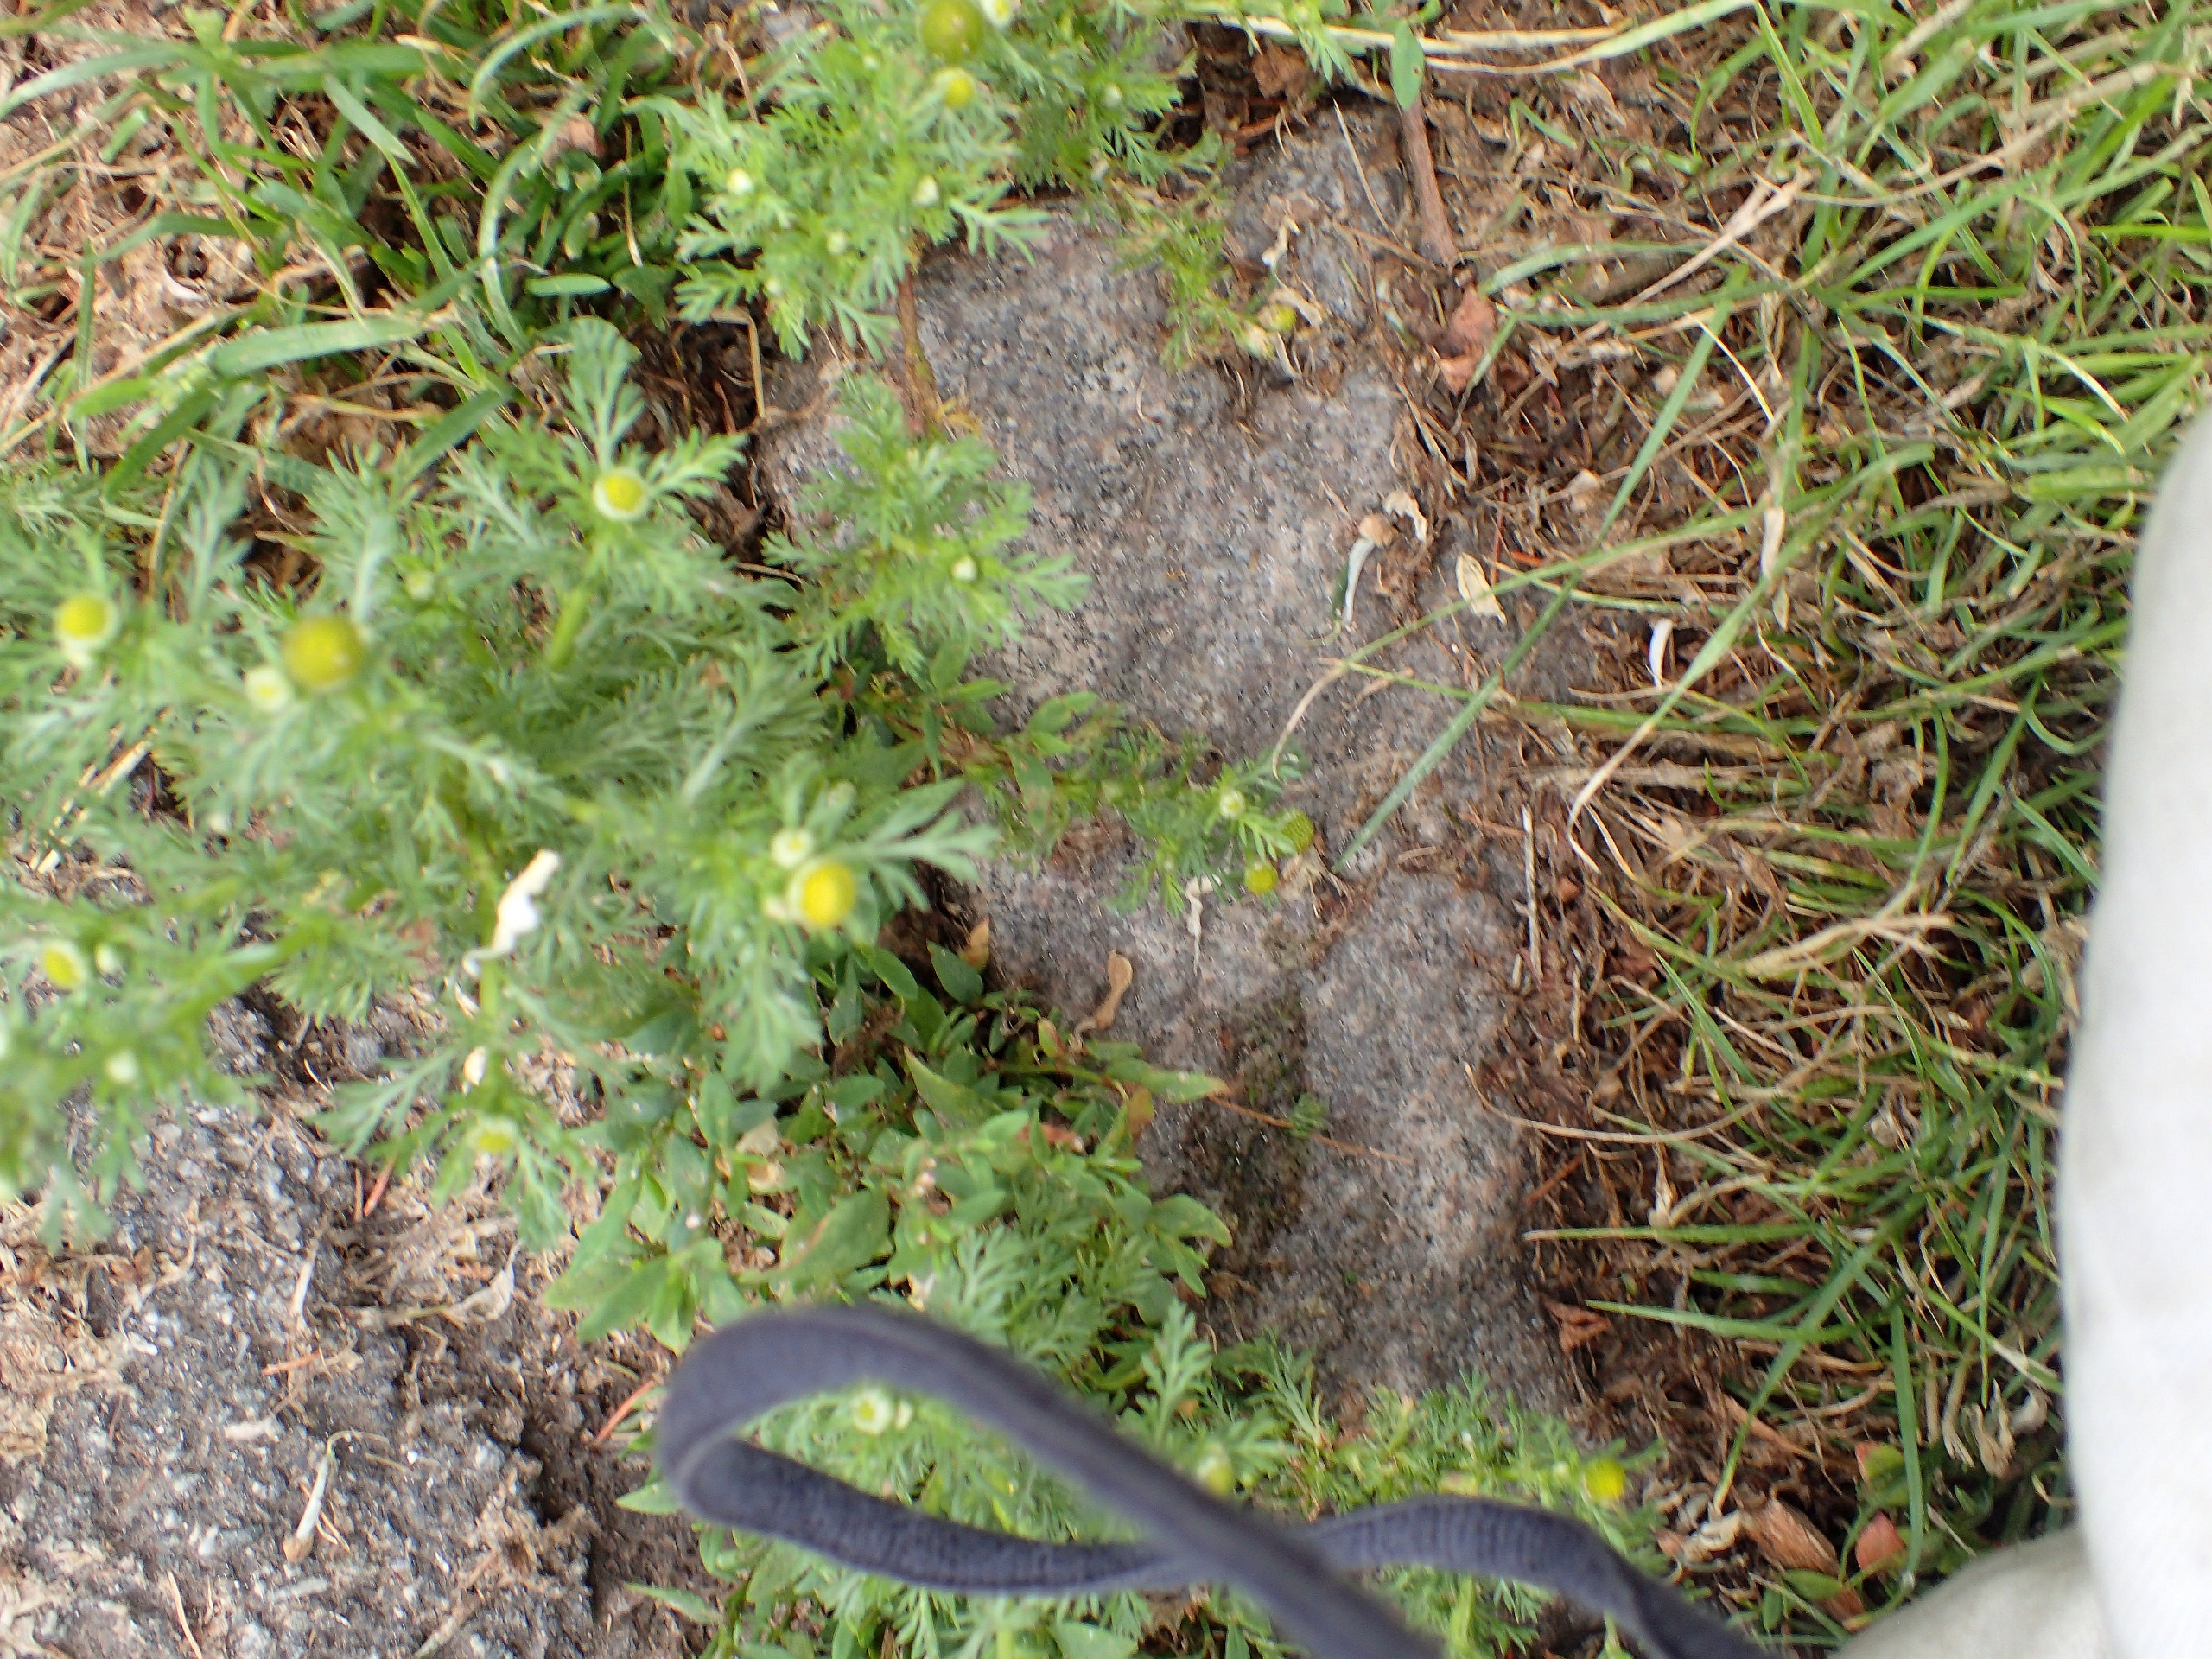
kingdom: Plantae
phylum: Tracheophyta
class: Magnoliopsida
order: Asterales
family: Asteraceae
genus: Matricaria
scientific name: Matricaria discoidea
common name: Skive-kamille
